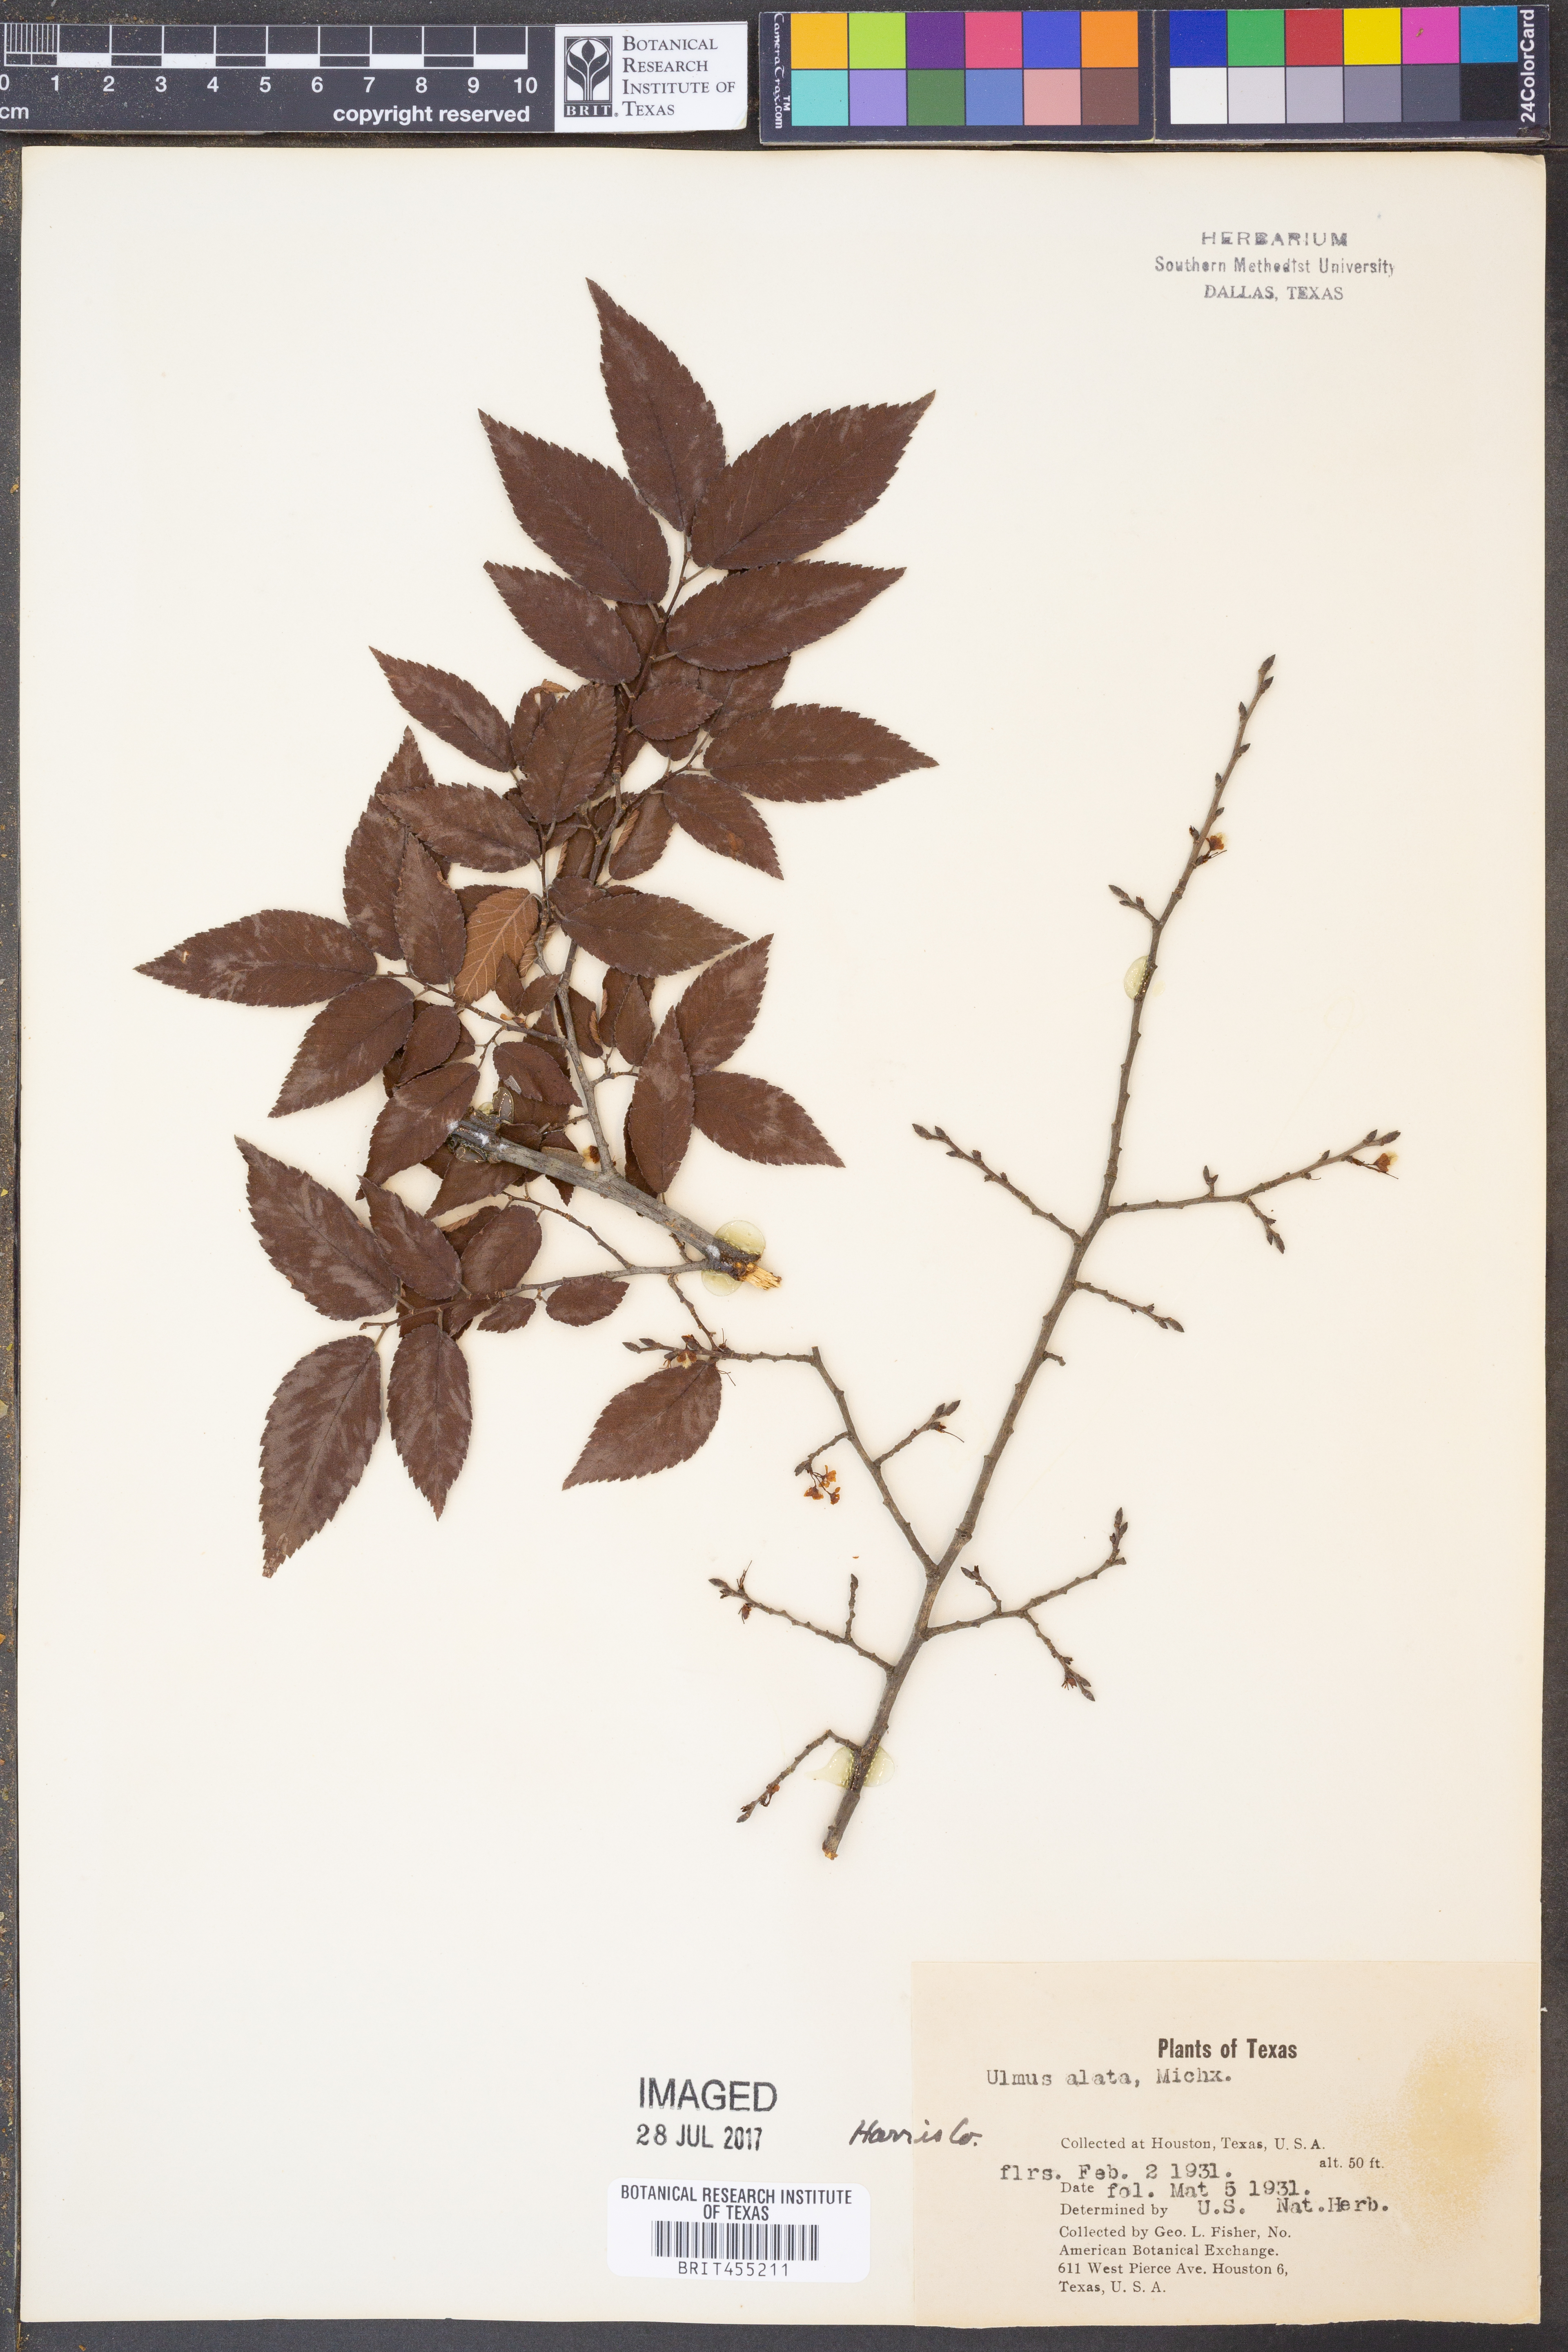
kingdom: Plantae
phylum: Tracheophyta
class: Magnoliopsida
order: Rosales
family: Ulmaceae
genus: Ulmus
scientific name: Ulmus alata
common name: Winged elm
